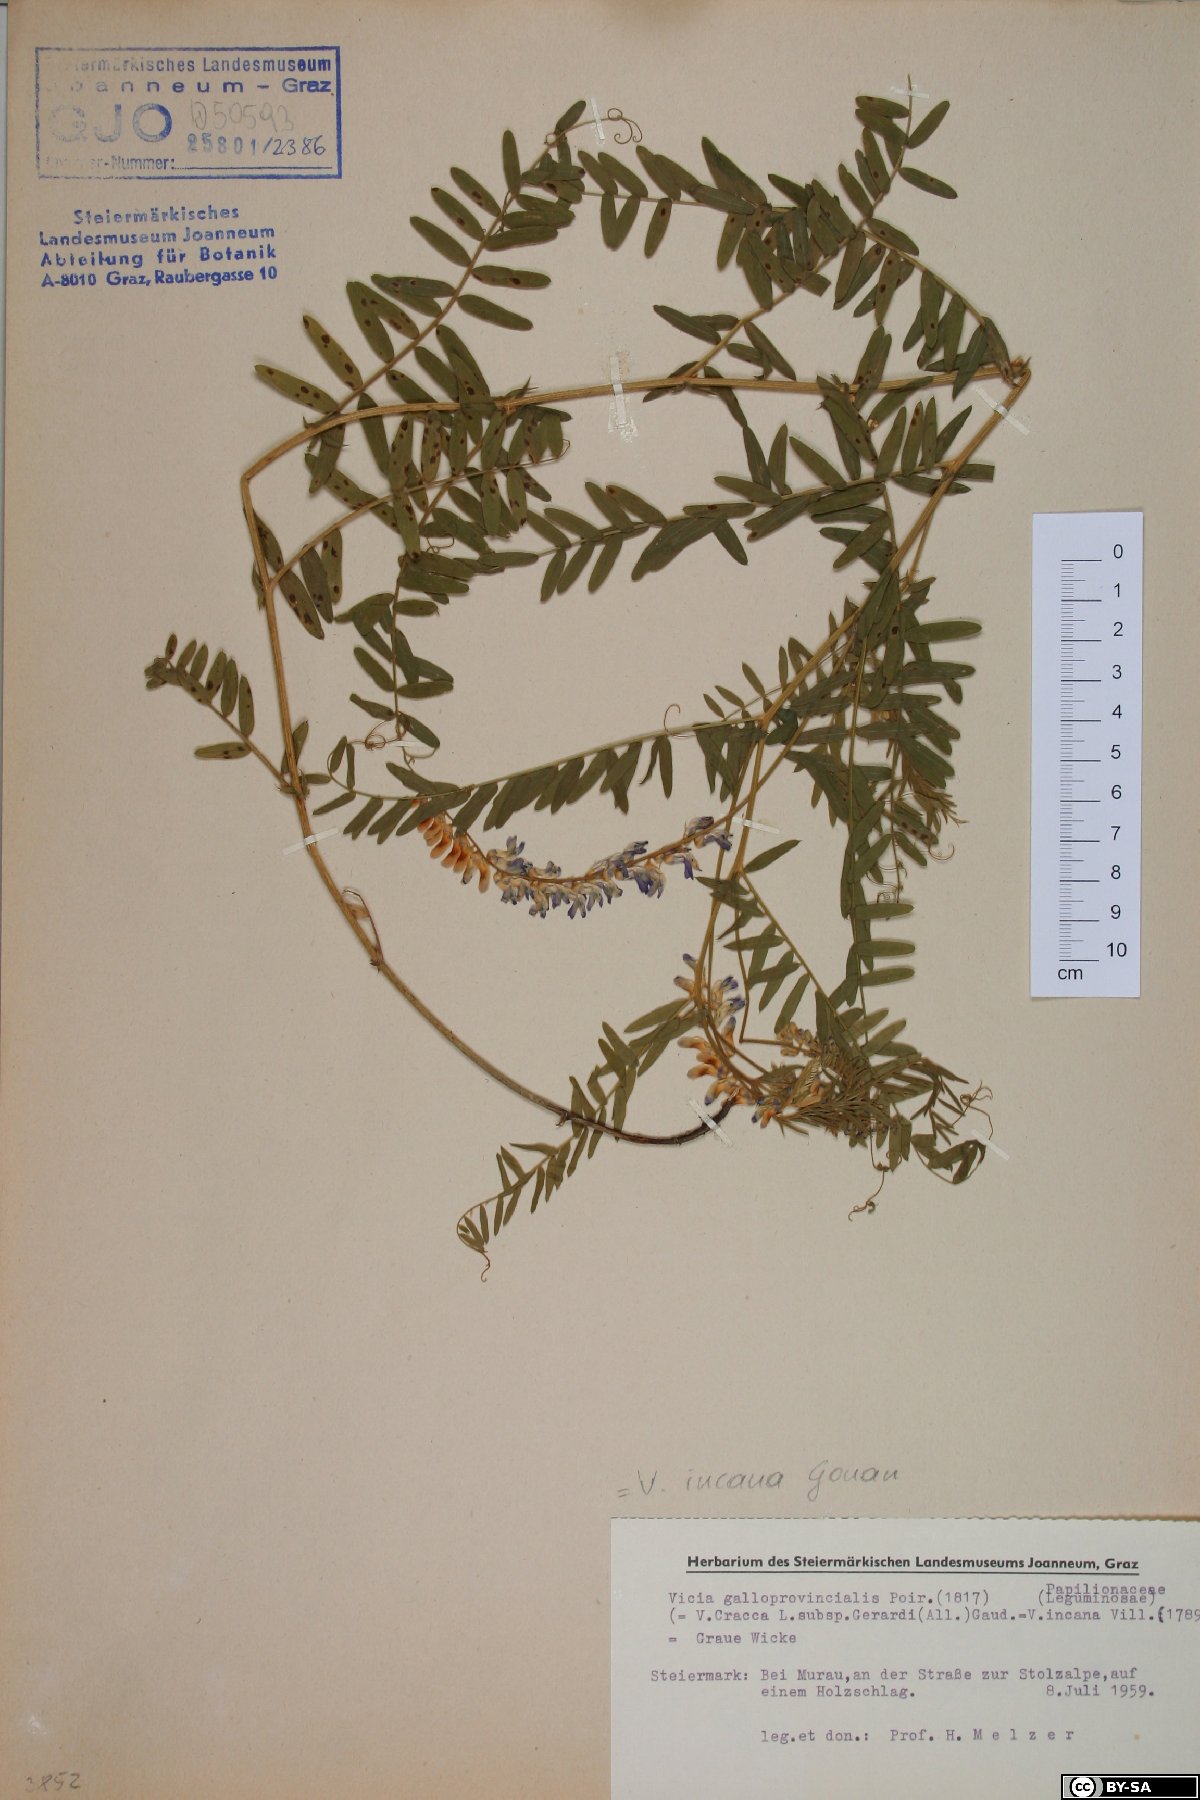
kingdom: Plantae
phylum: Tracheophyta
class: Magnoliopsida
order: Fabales
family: Fabaceae
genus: Vicia
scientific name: Vicia incana
